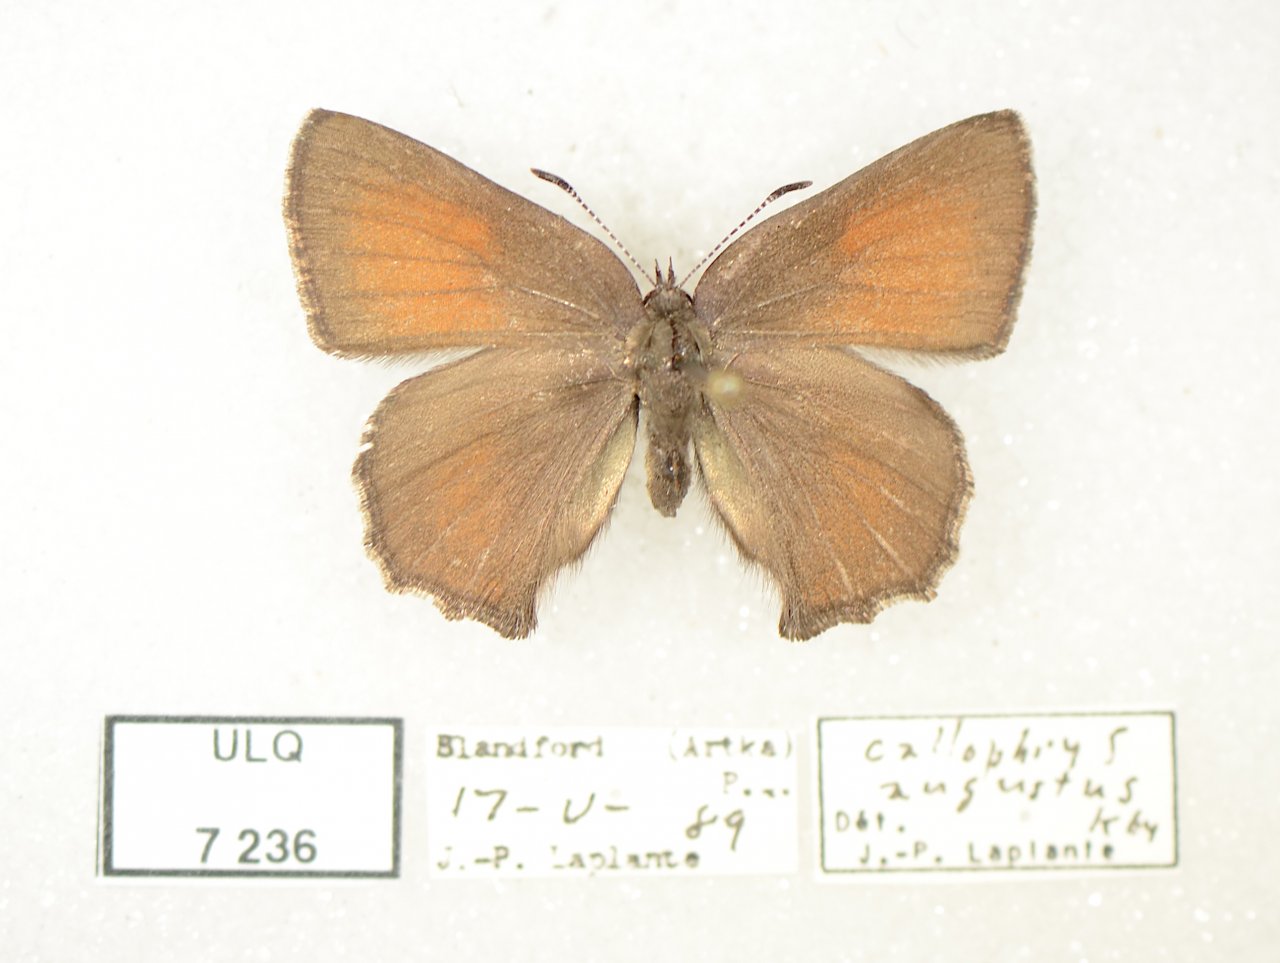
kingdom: Animalia
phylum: Arthropoda
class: Insecta
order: Lepidoptera
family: Lycaenidae
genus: Incisalia
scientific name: Incisalia irioides
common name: Brown Elfin
